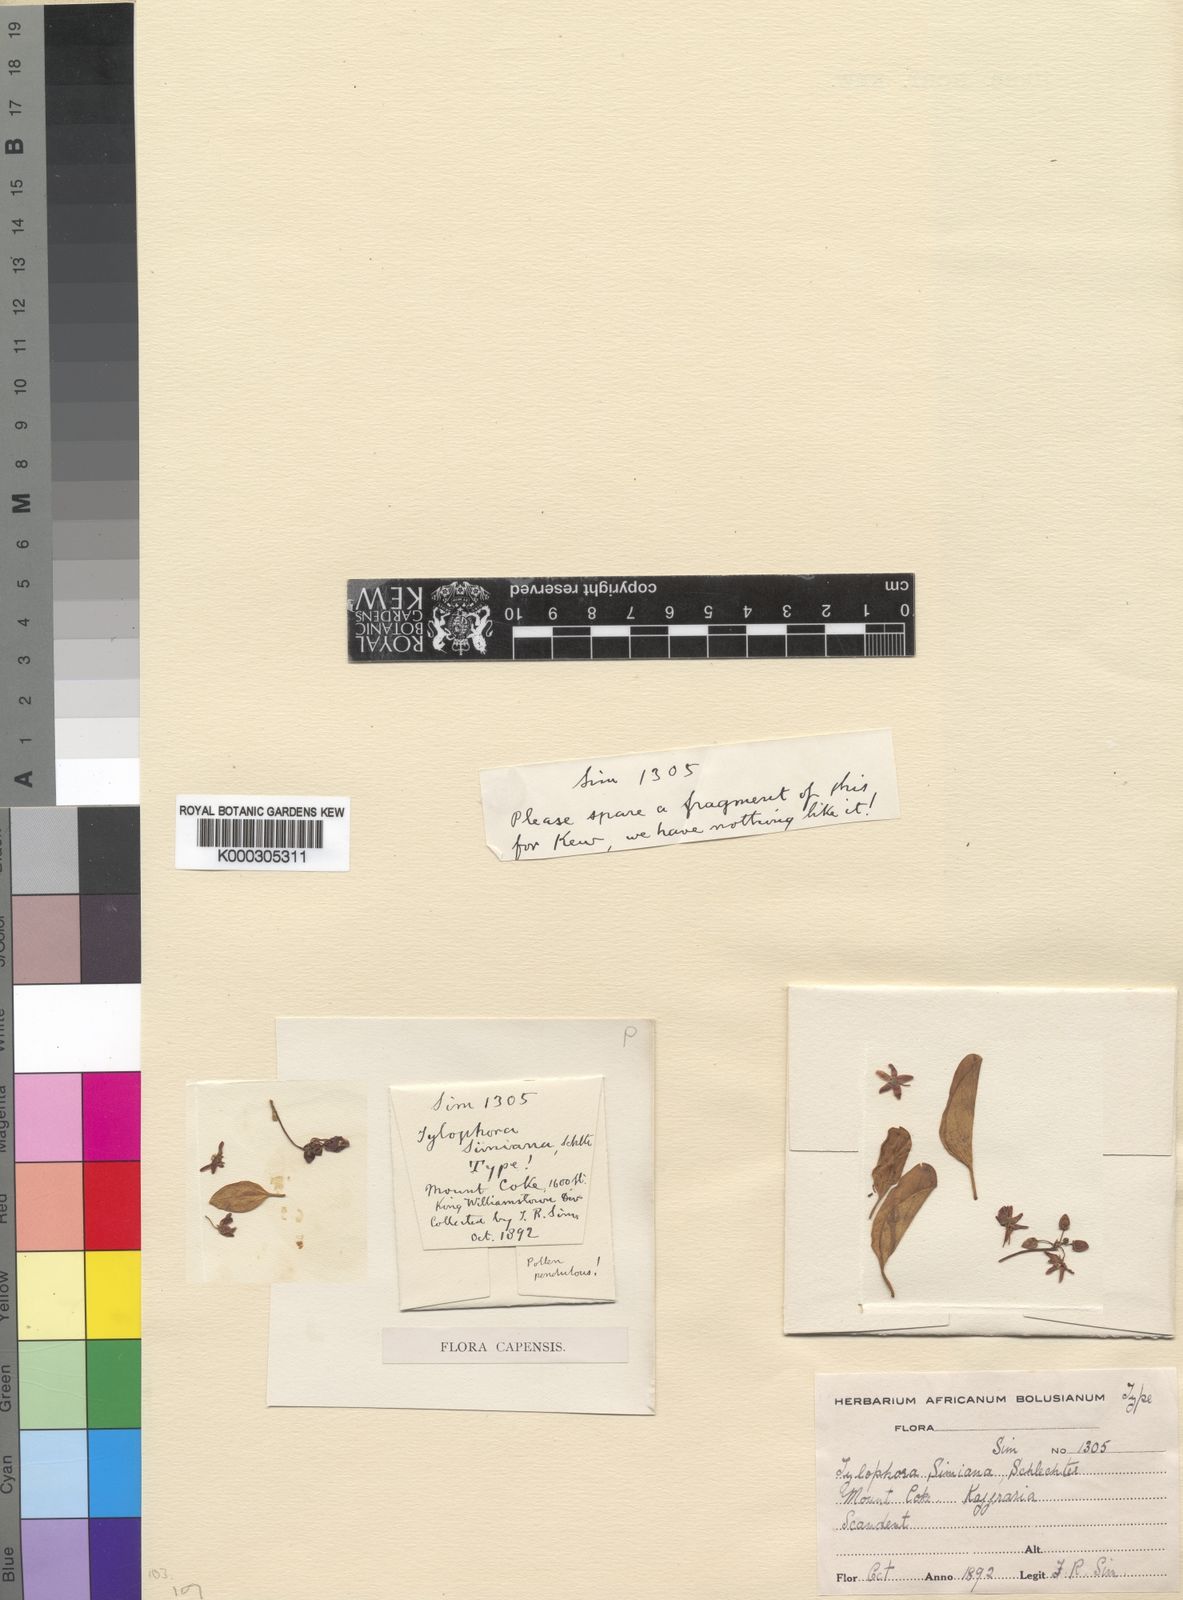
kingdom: Plantae
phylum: Tracheophyta
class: Magnoliopsida
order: Gentianales
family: Apocynaceae
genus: Vincetoxicum
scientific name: Vincetoxicum simianum
